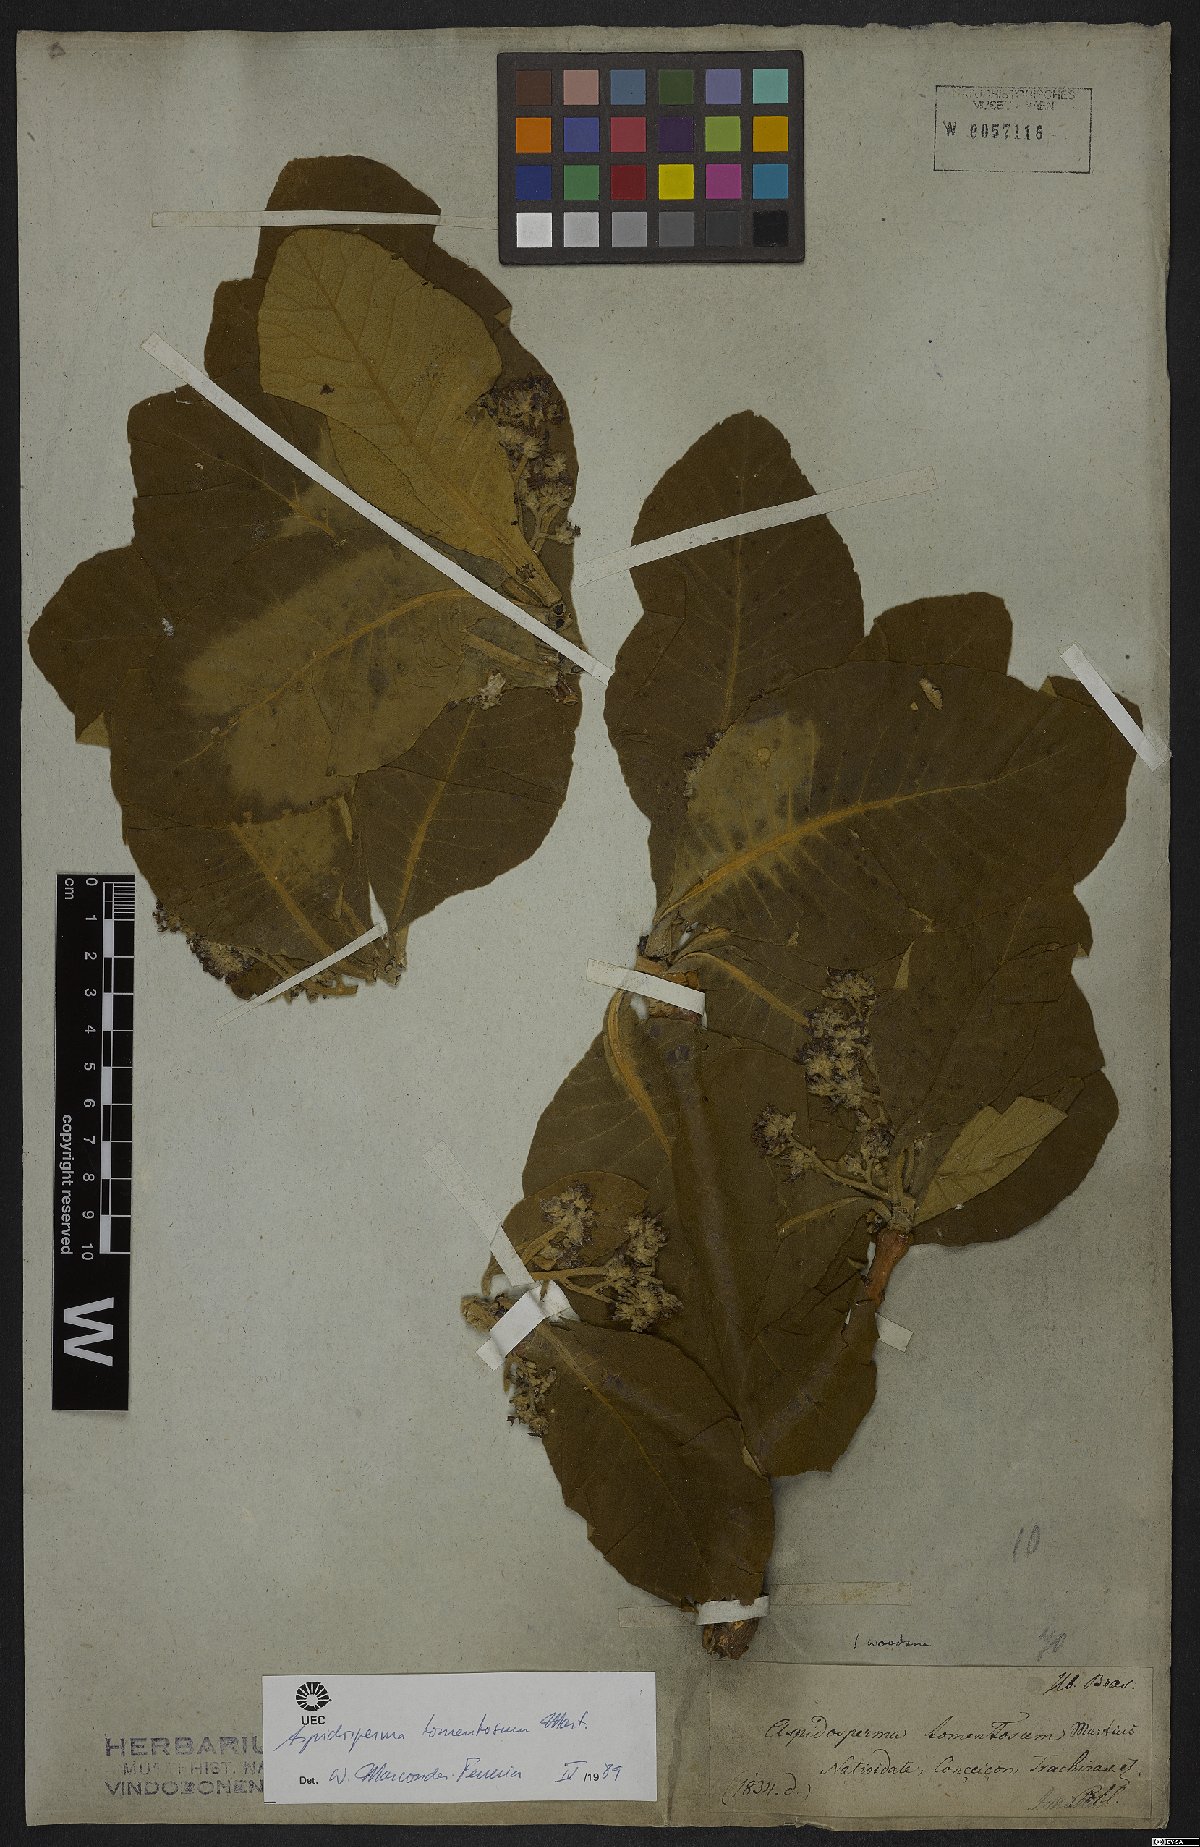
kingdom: Plantae
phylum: Tracheophyta
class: Magnoliopsida
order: Gentianales
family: Apocynaceae
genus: Aspidosperma
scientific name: Aspidosperma tomentosum
